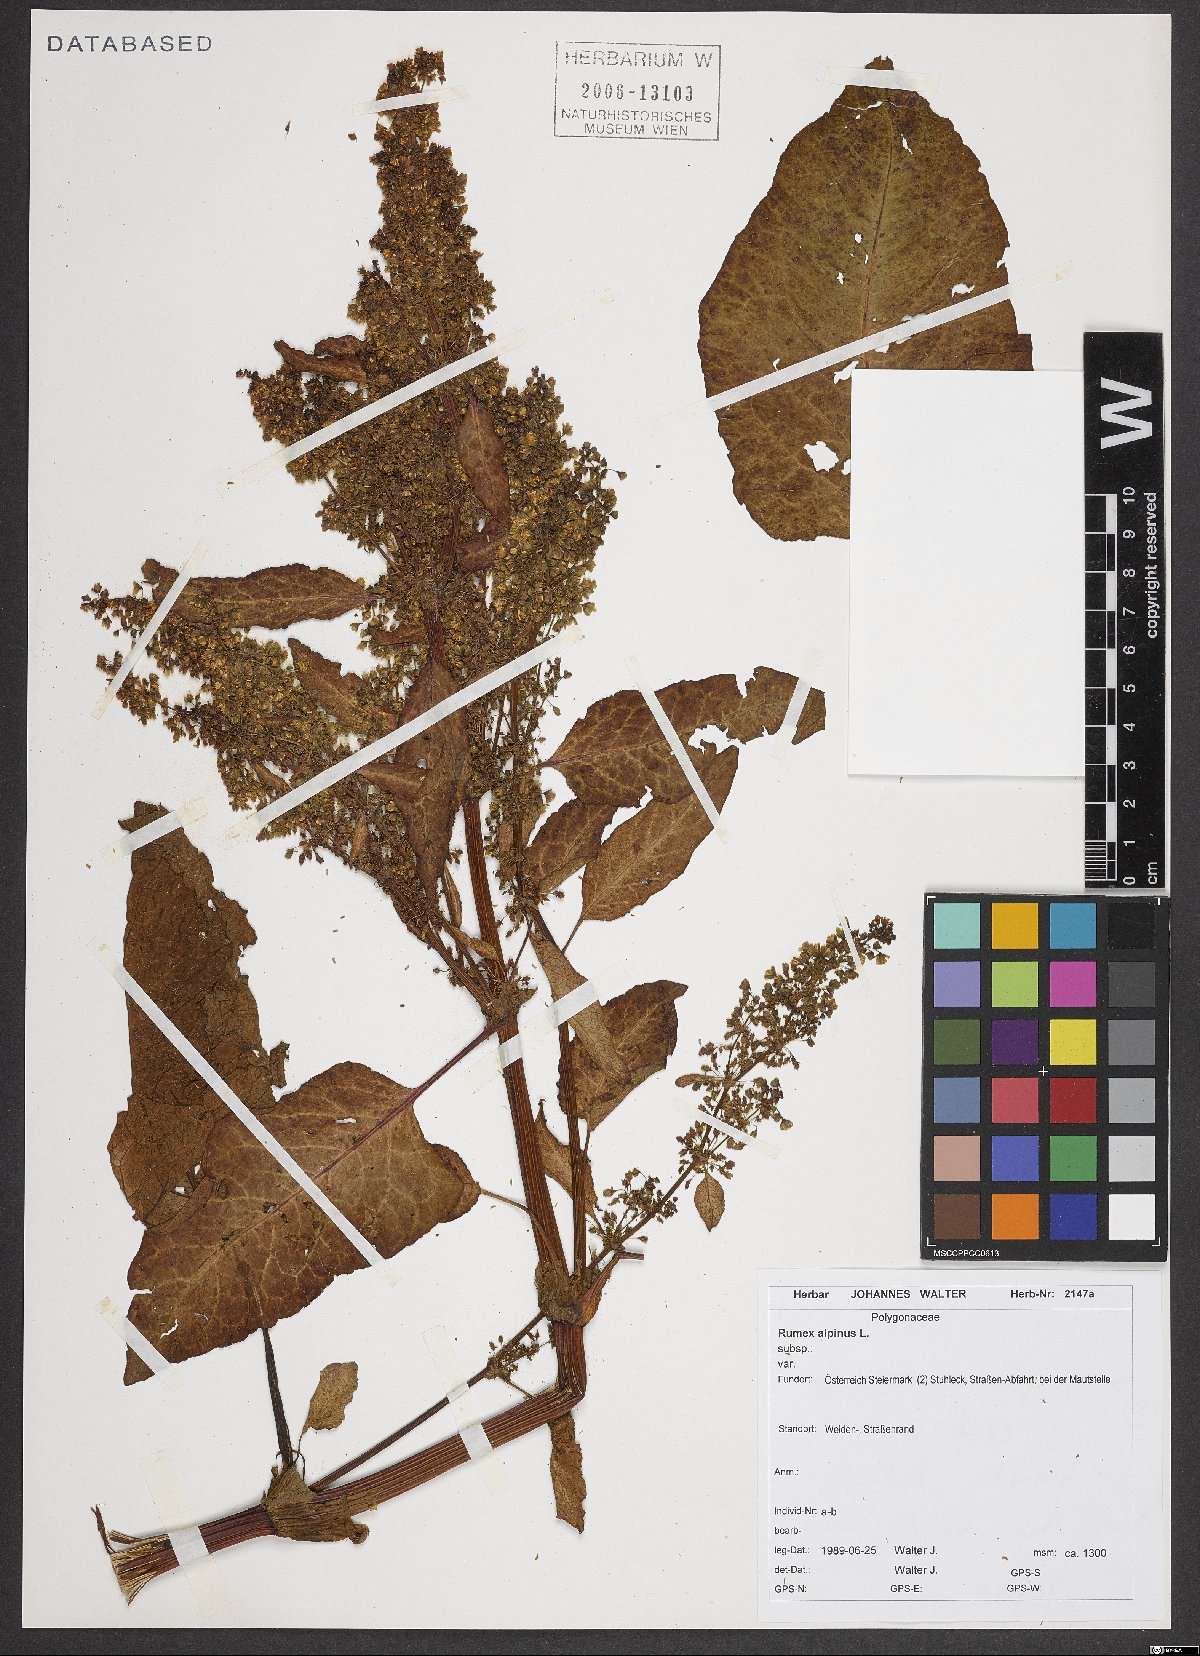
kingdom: Plantae
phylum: Tracheophyta
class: Magnoliopsida
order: Caryophyllales
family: Polygonaceae
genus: Rumex
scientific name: Rumex alpinus
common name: Alpine dock
